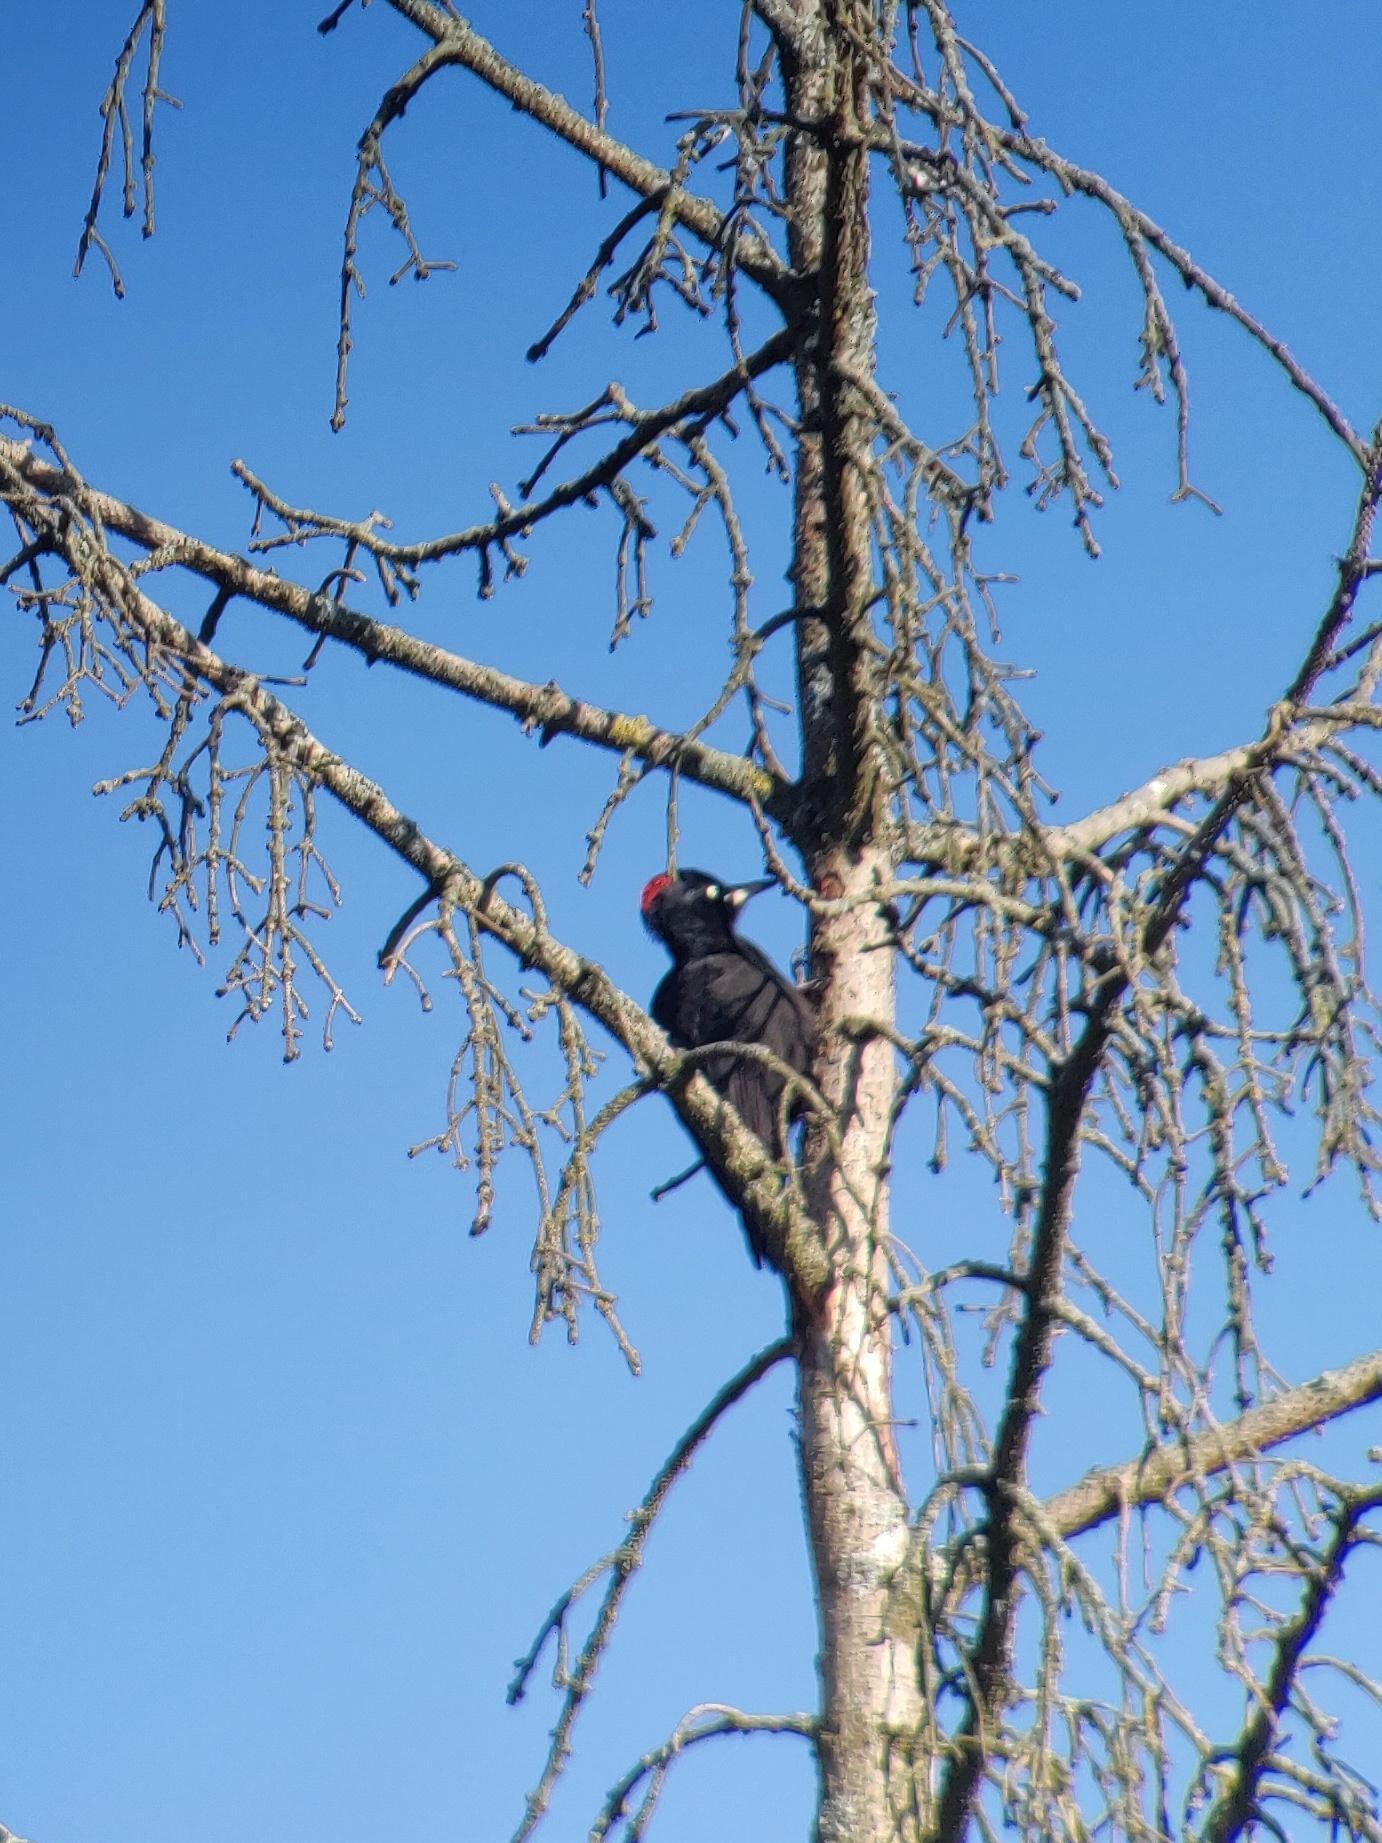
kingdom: Animalia
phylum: Chordata
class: Aves
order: Piciformes
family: Picidae
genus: Dryocopus
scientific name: Dryocopus martius
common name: Sortspætte
